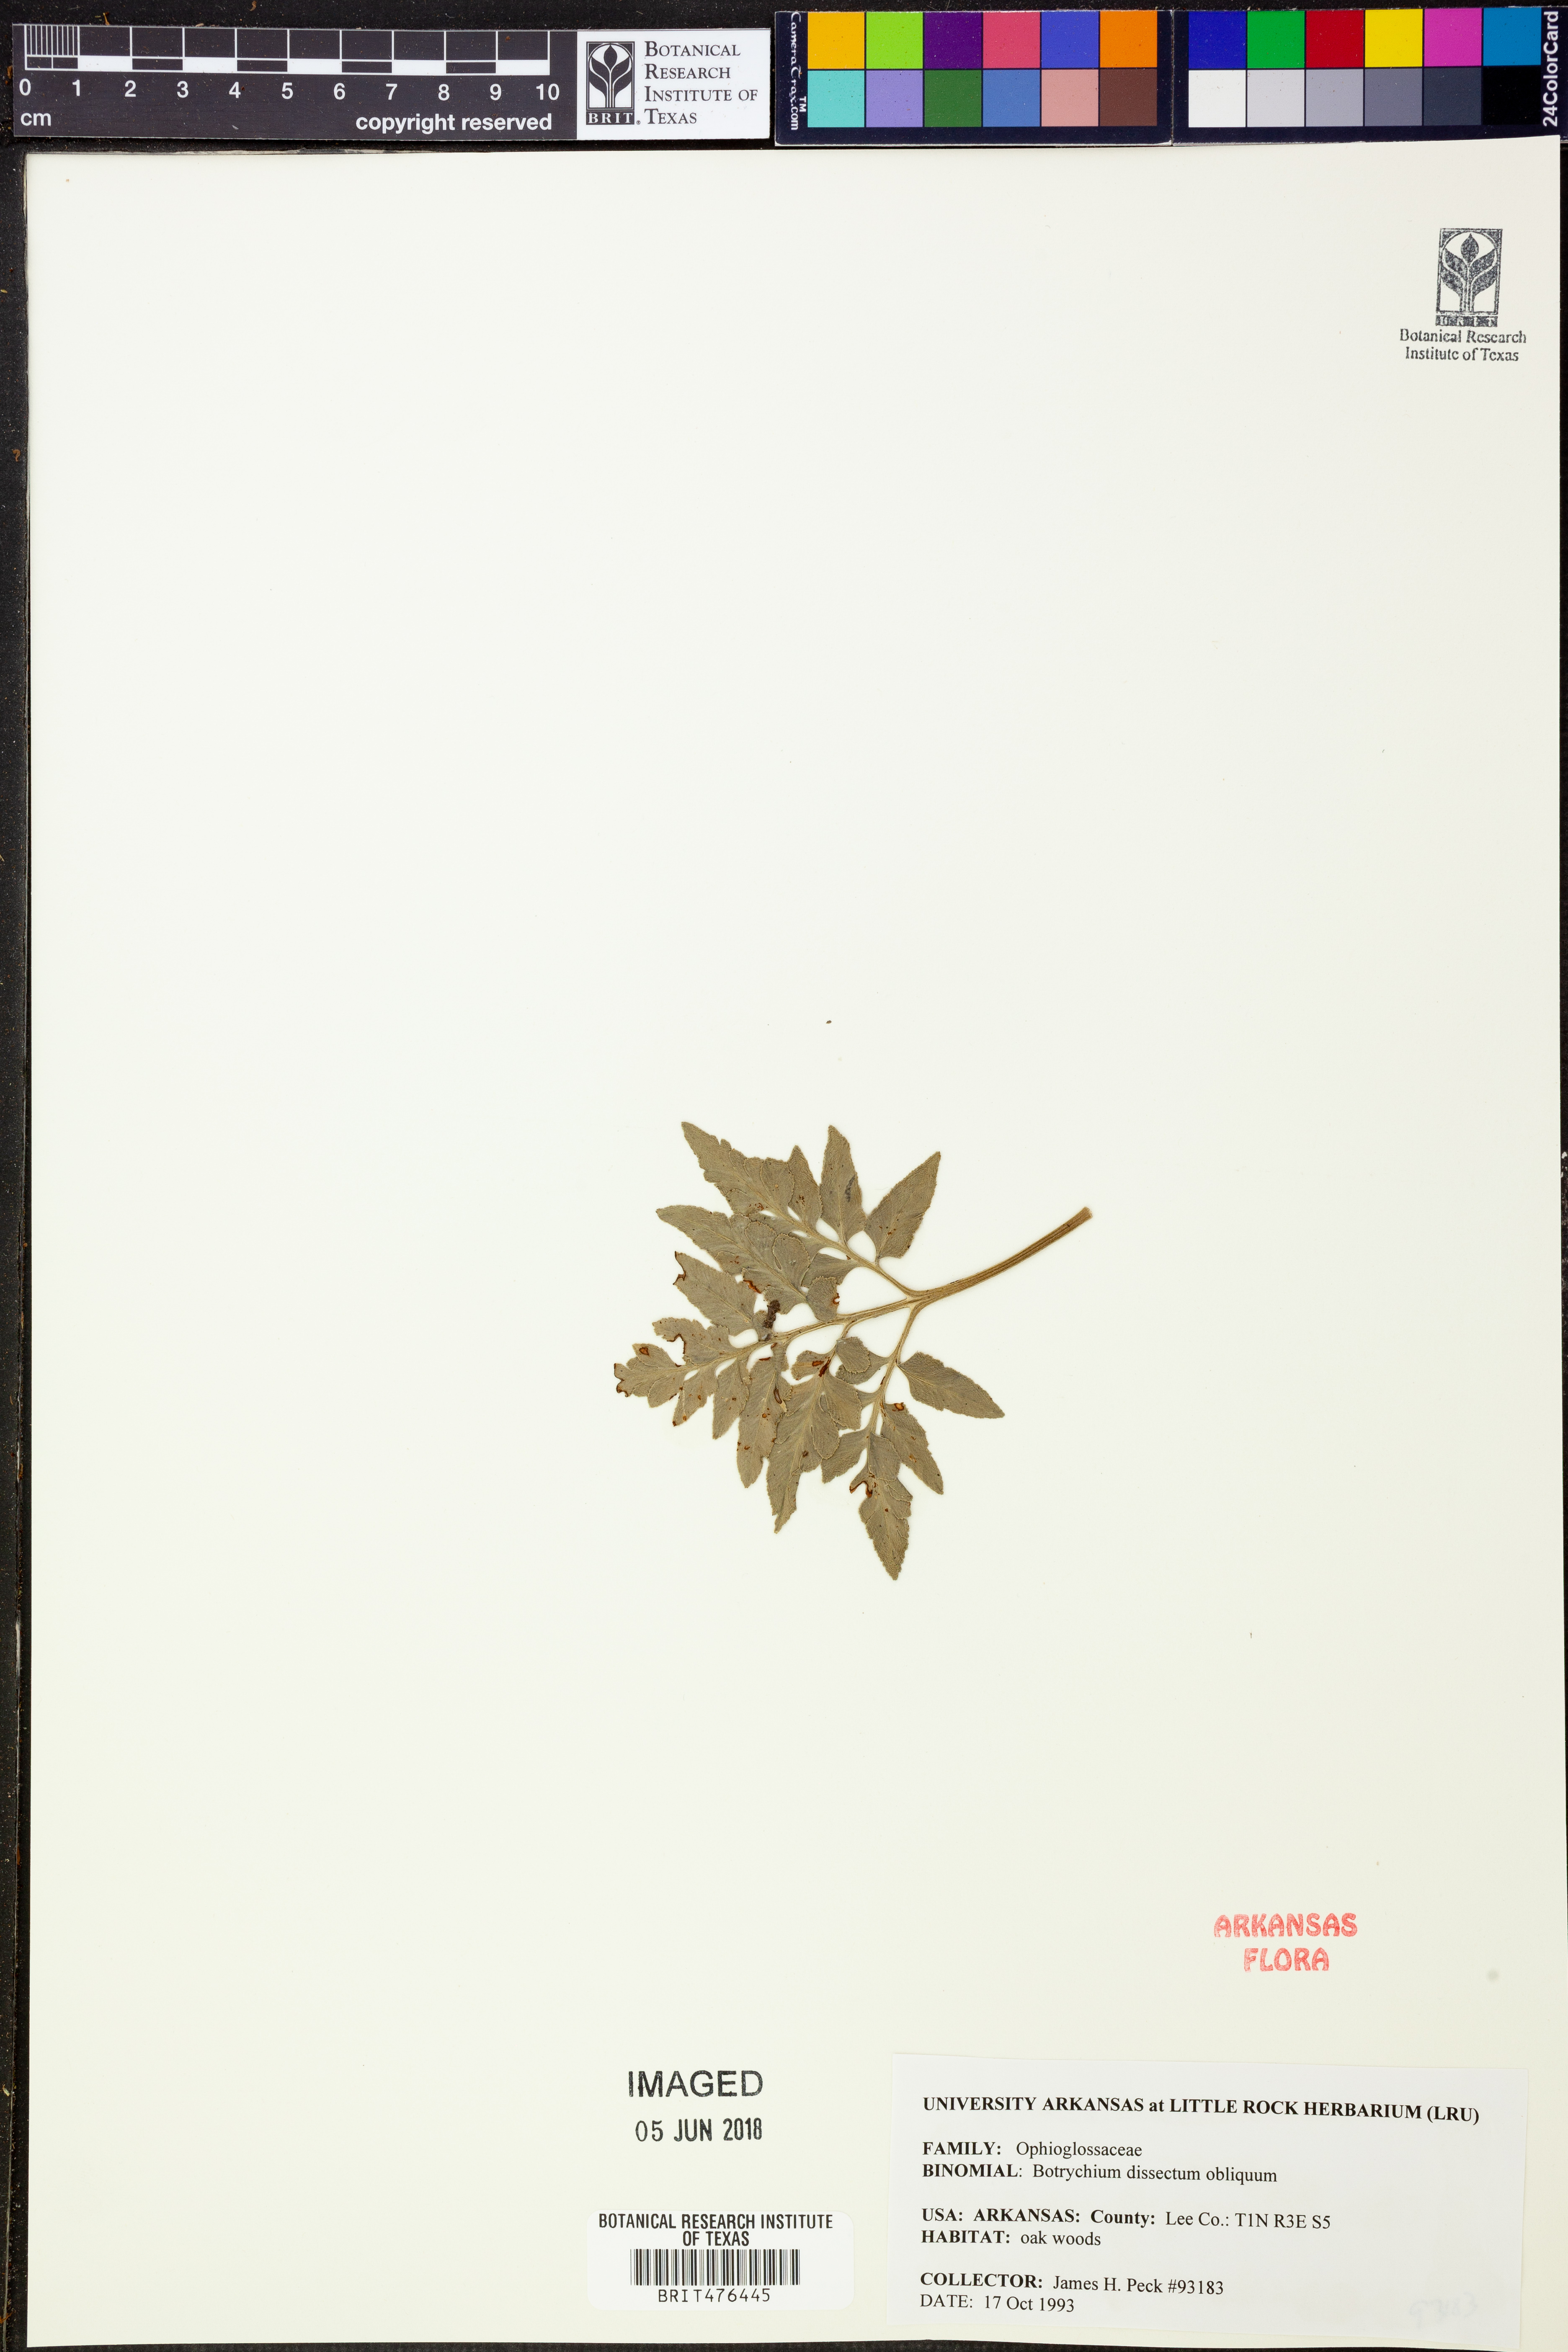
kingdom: Plantae
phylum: Tracheophyta
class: Polypodiopsida
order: Ophioglossales
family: Ophioglossaceae
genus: Sceptridium
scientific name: Sceptridium dissectum
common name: Cut-leaved grapefern
